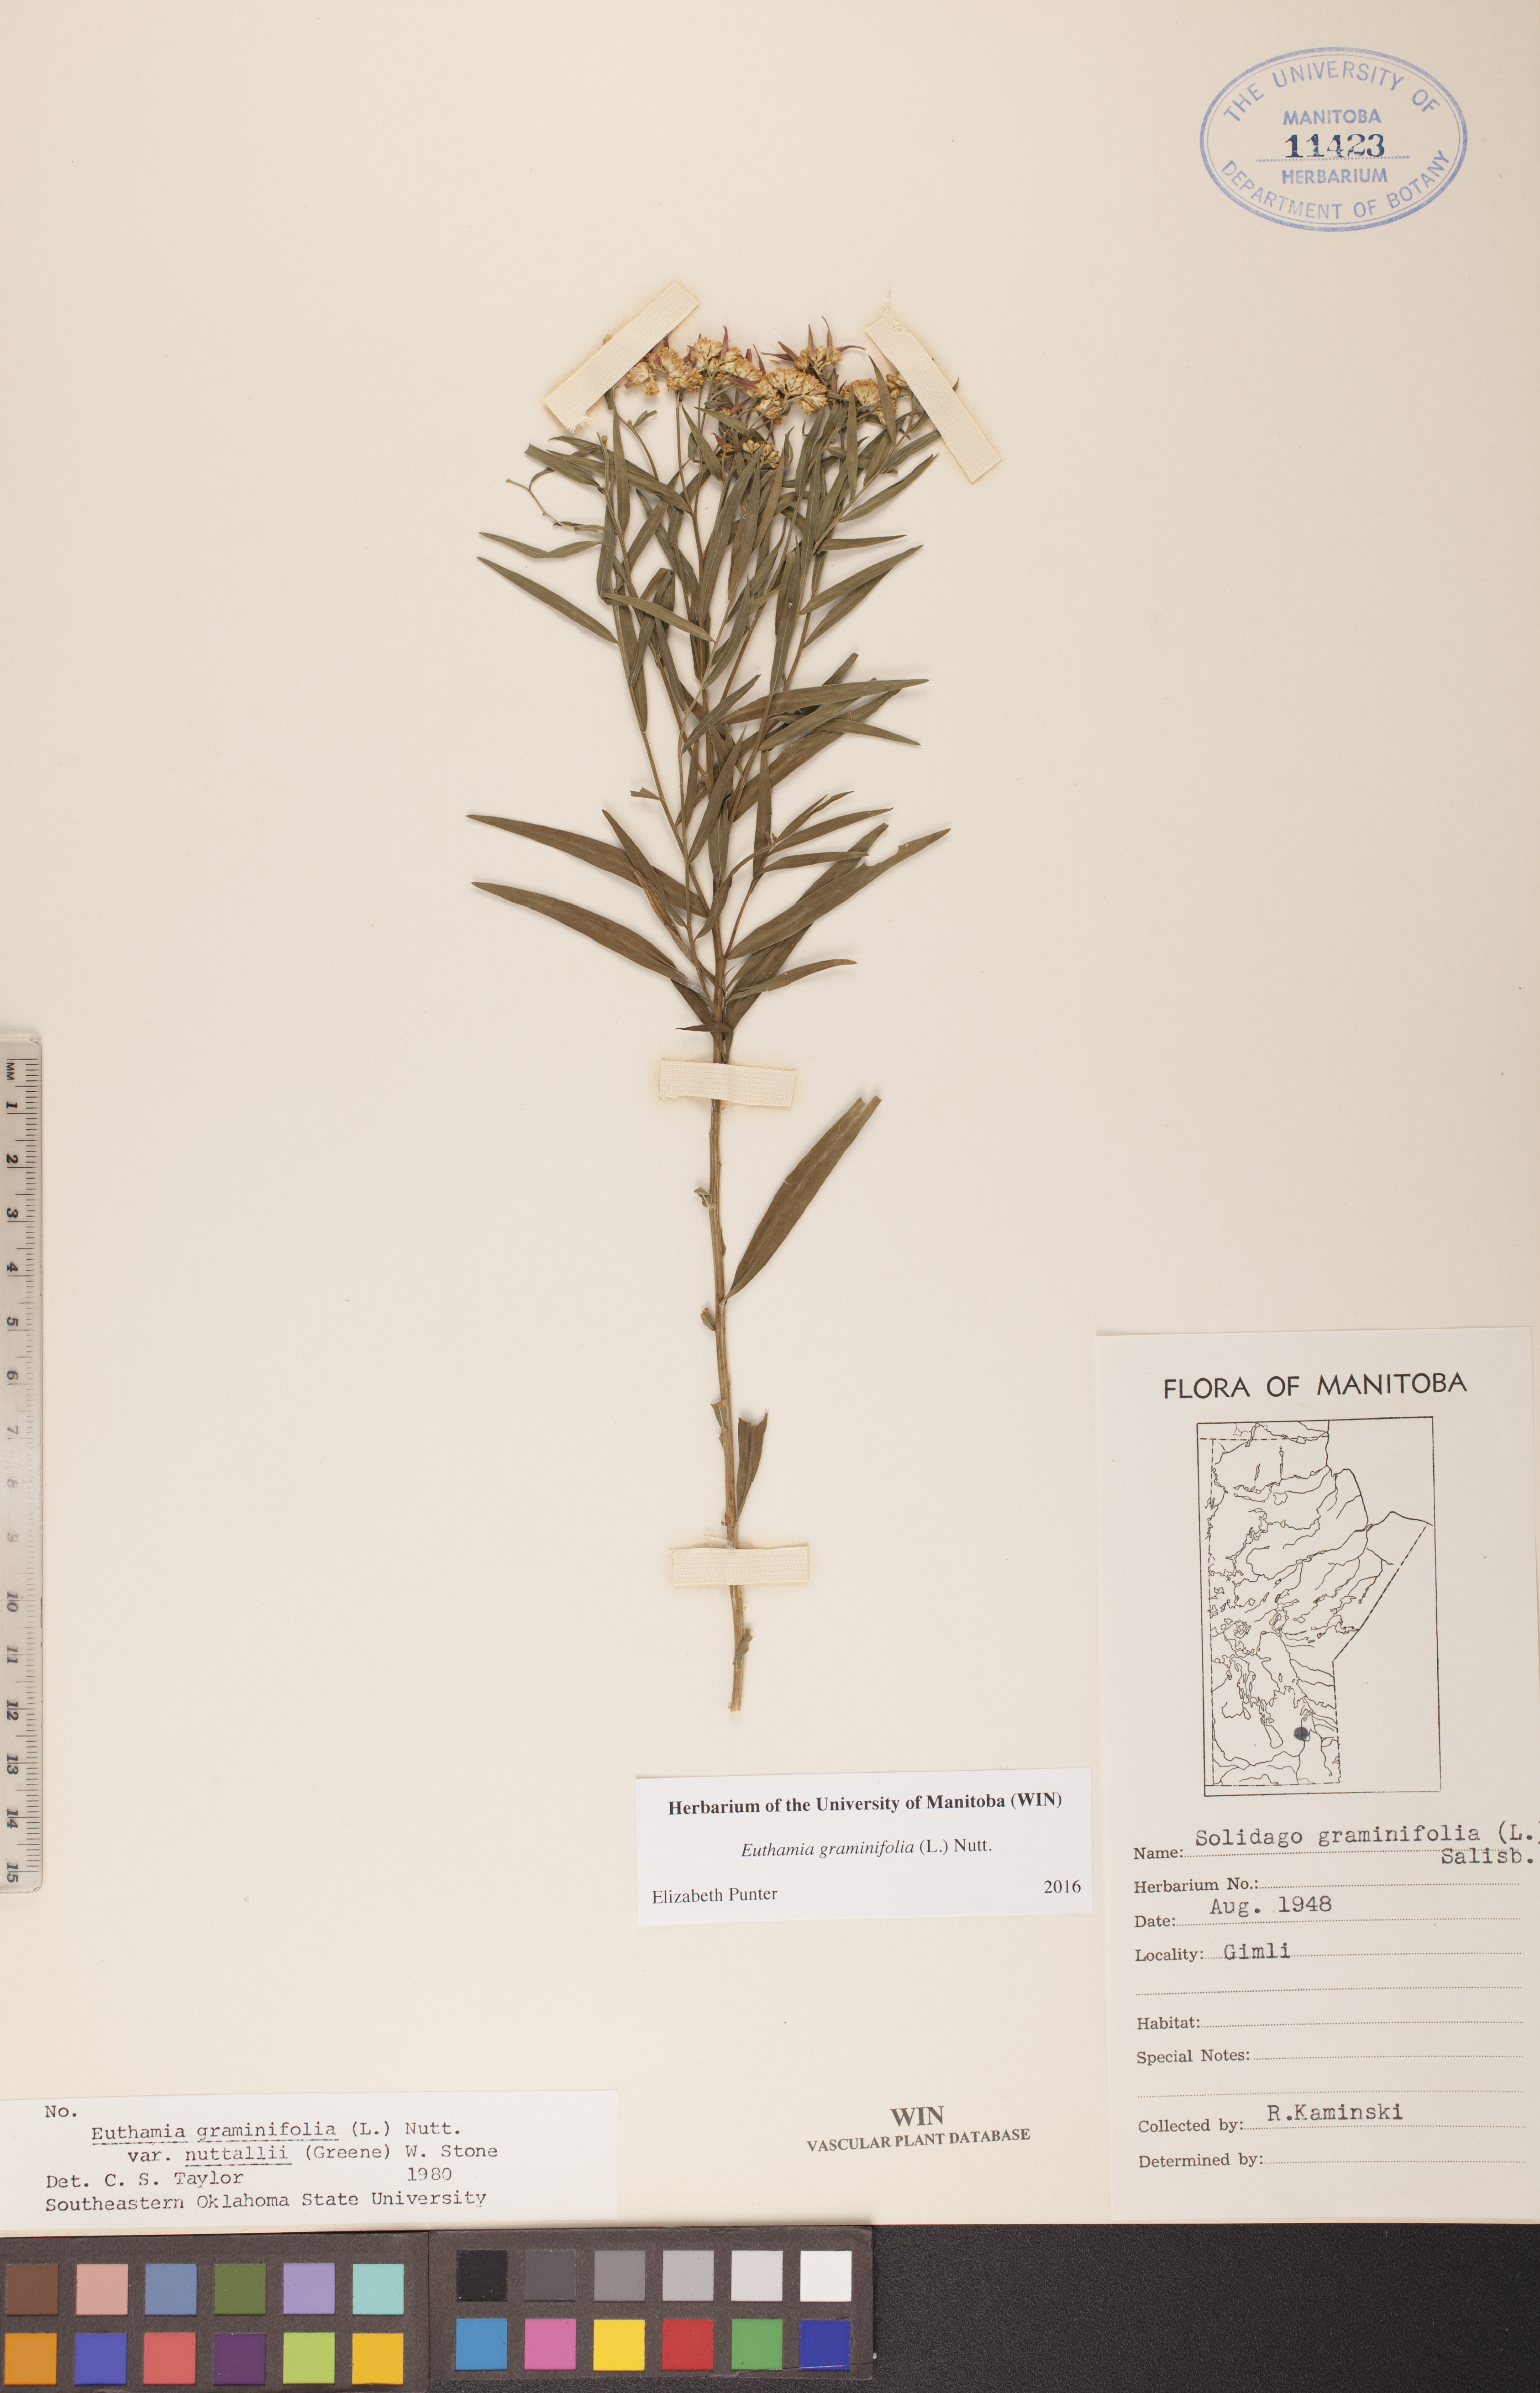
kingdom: Plantae
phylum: Tracheophyta
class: Magnoliopsida
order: Asterales
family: Asteraceae
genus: Euthamia
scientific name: Euthamia graminifolia
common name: Common goldentop
